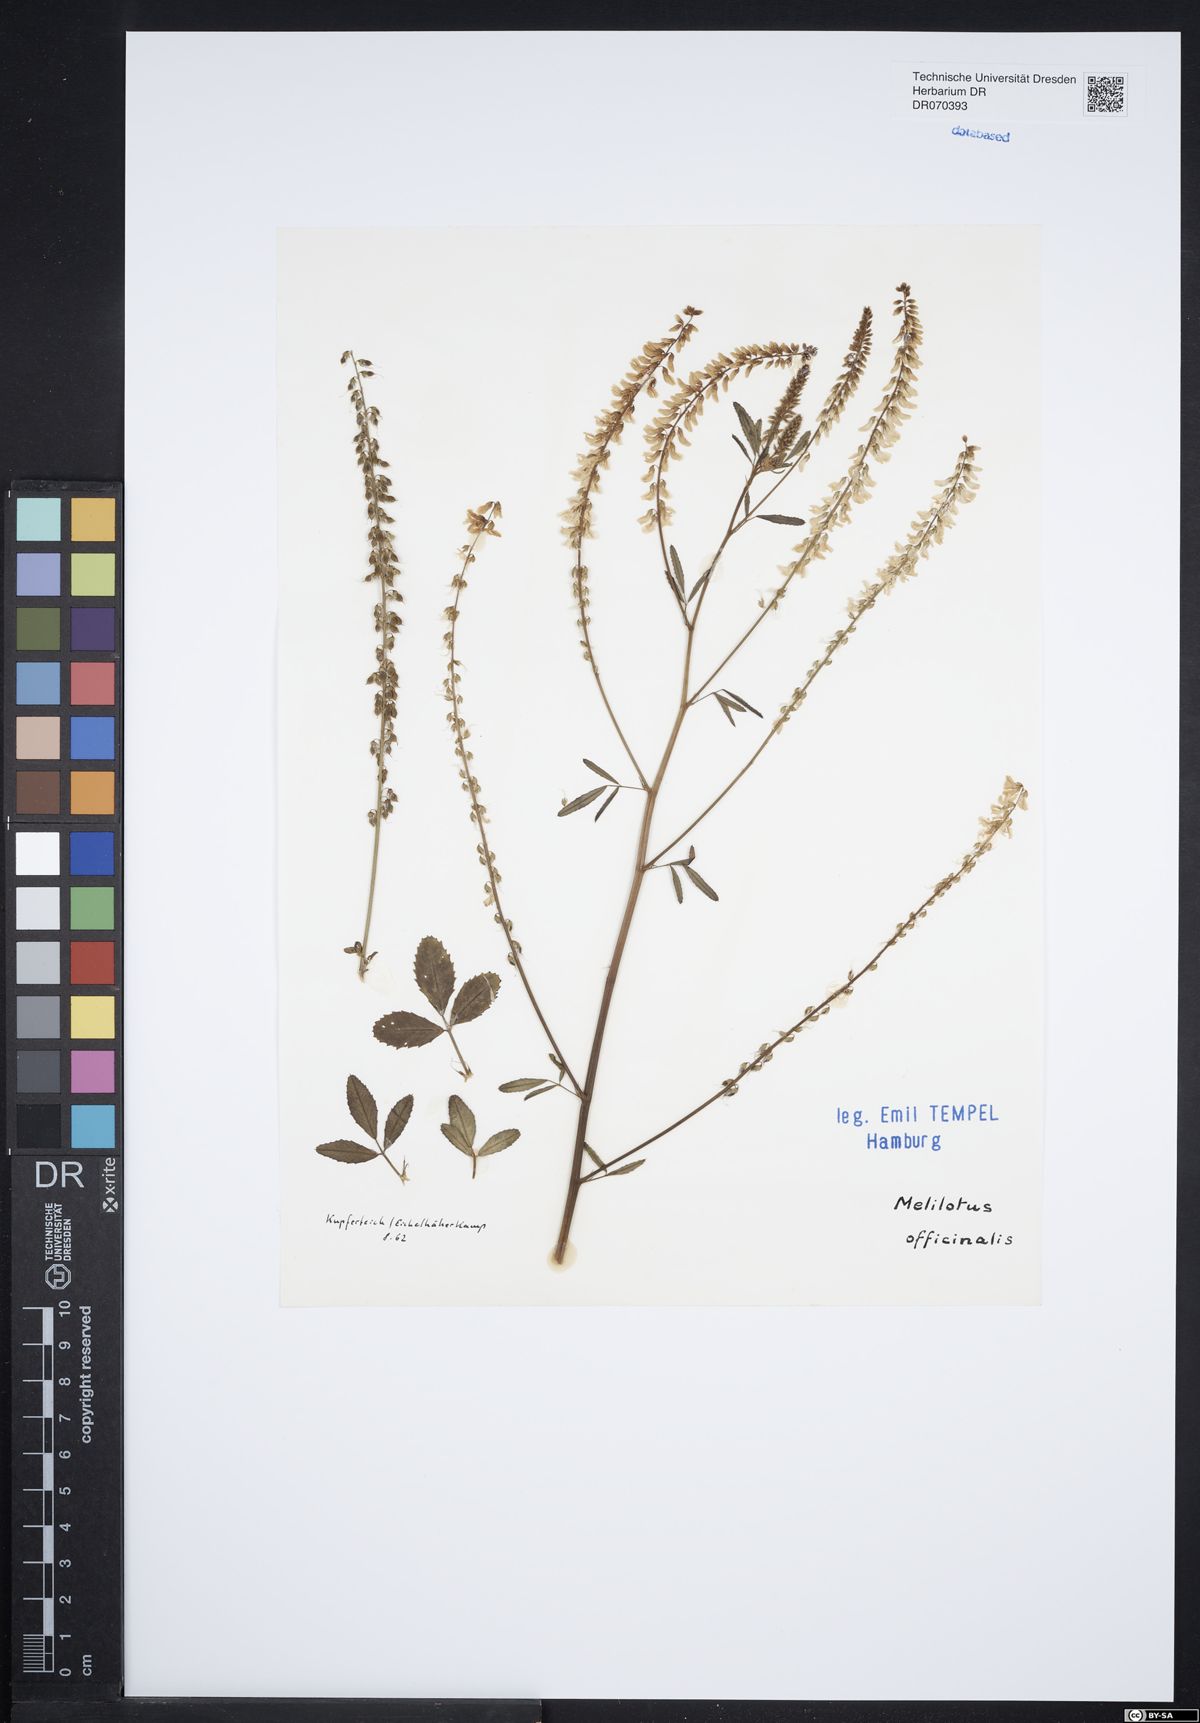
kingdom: Plantae
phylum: Tracheophyta
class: Magnoliopsida
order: Fabales
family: Fabaceae
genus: Melilotus
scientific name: Melilotus officinalis
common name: Sweetclover
